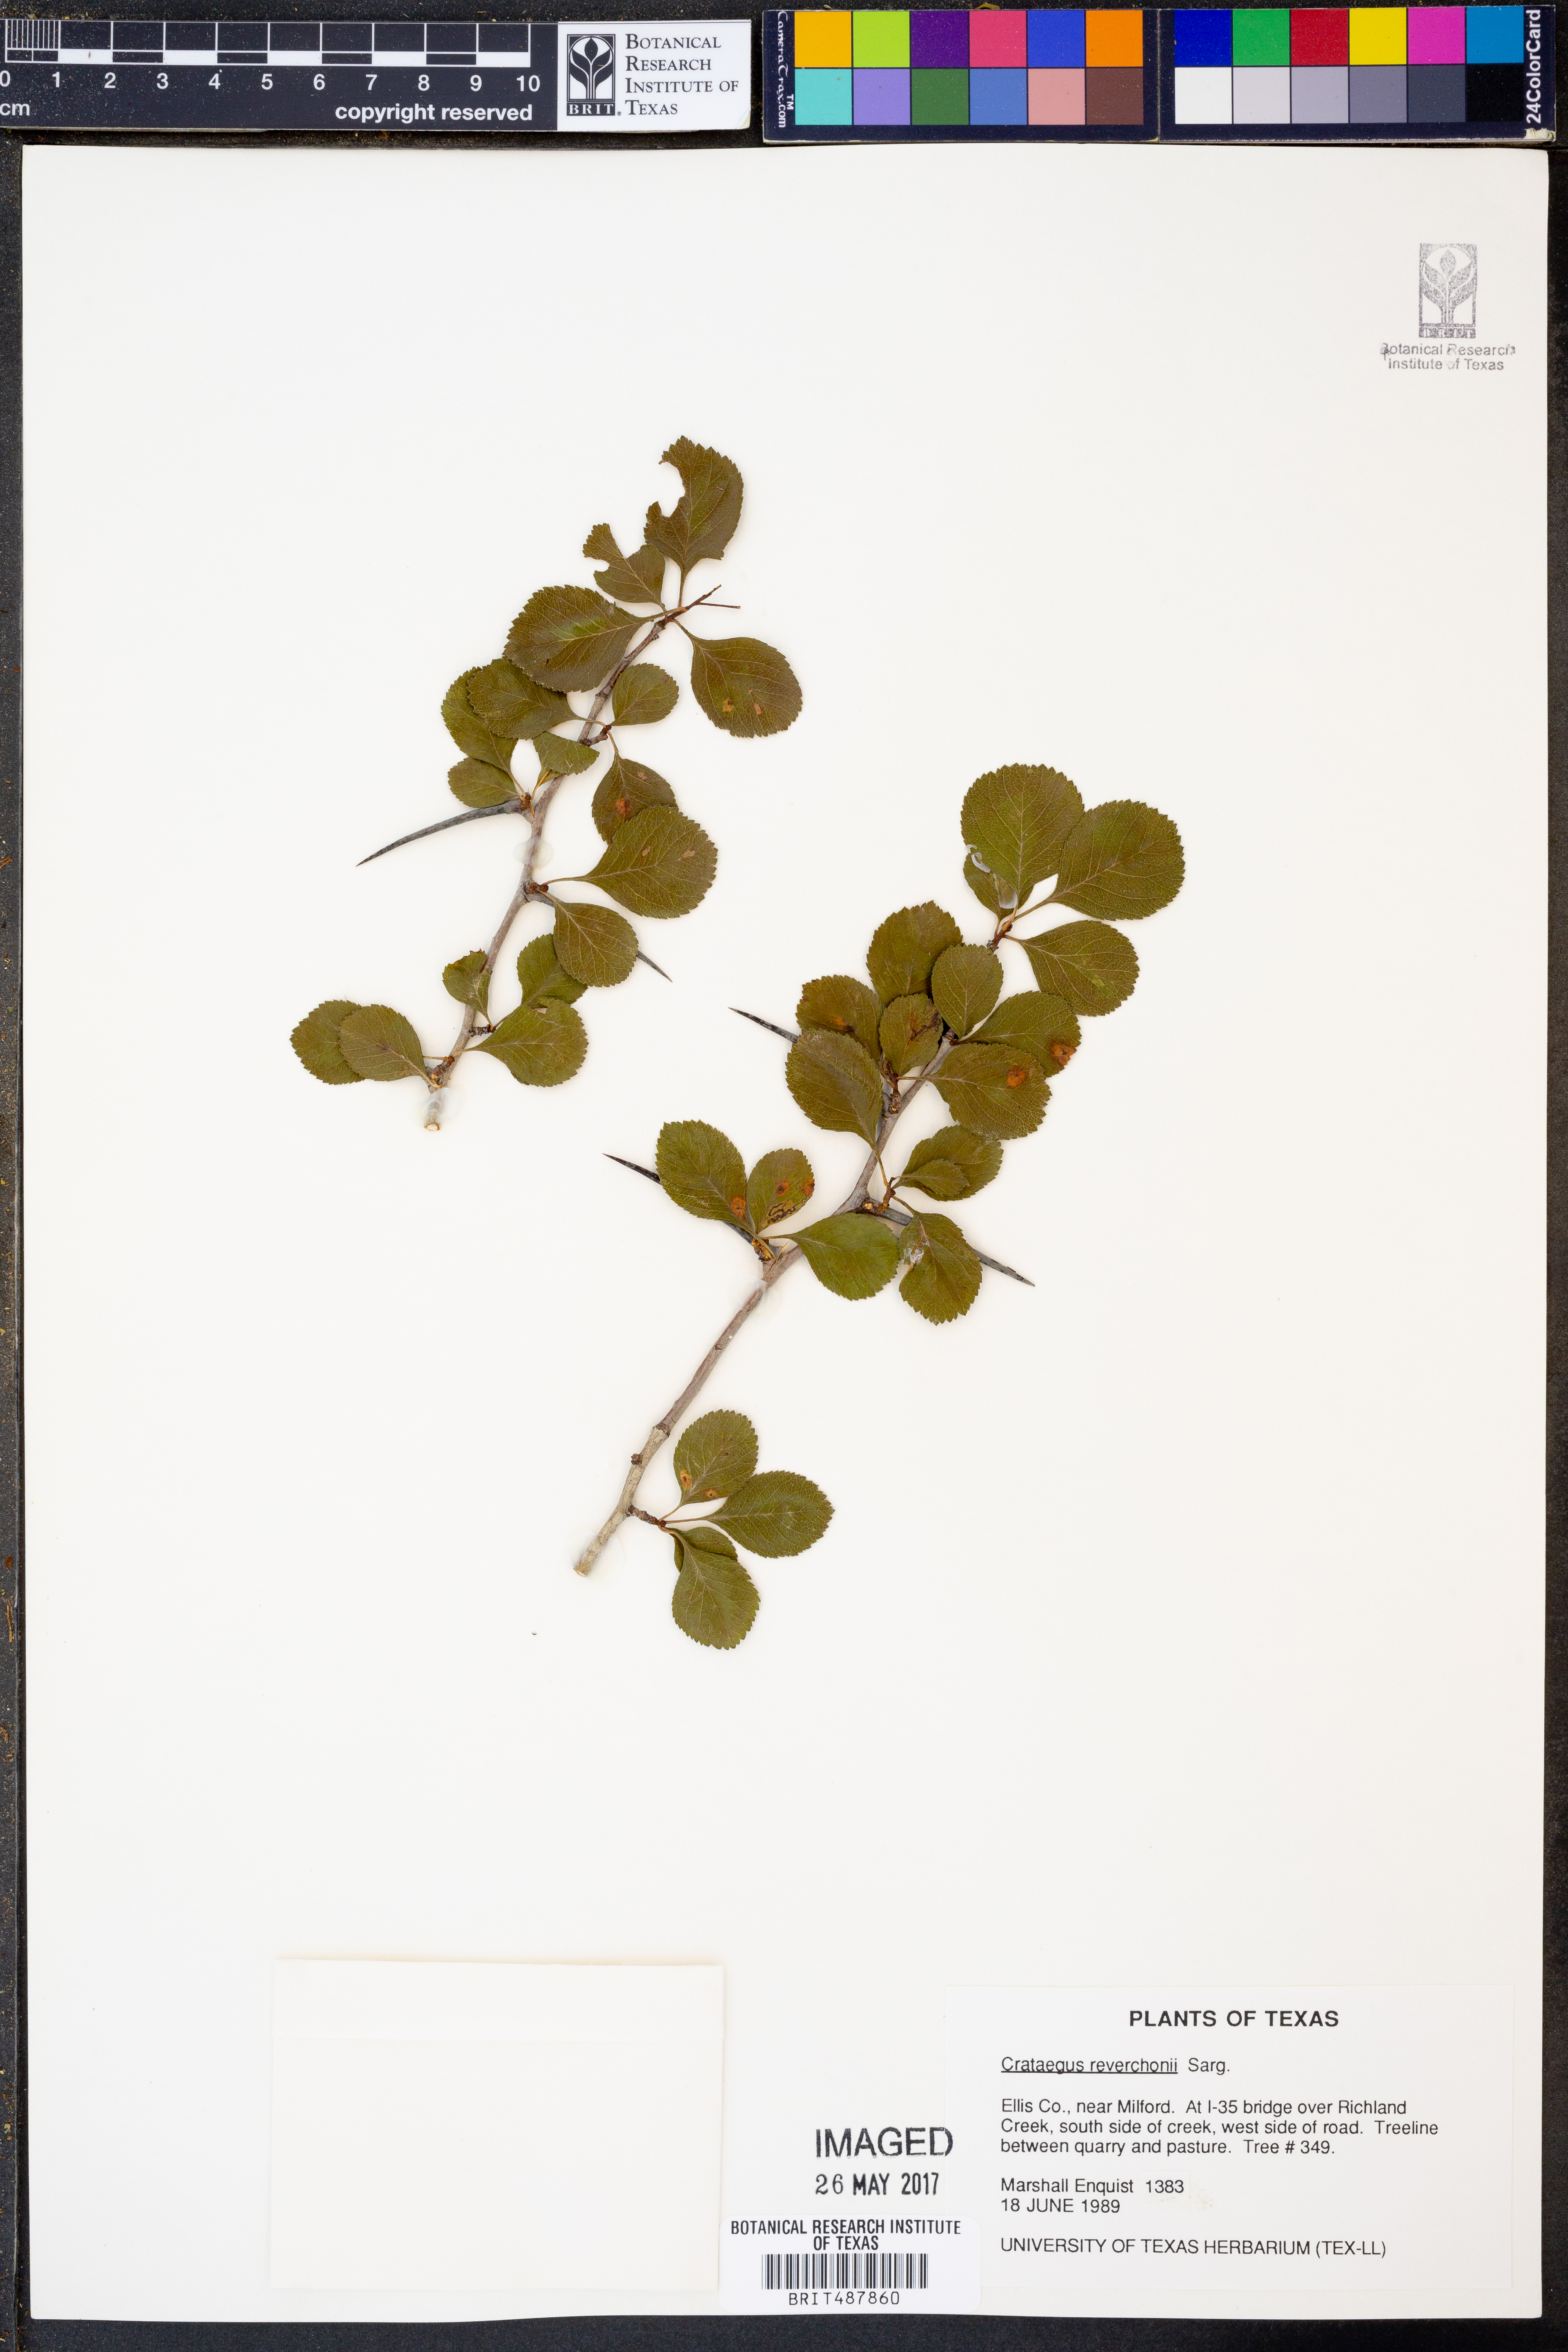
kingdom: Plantae
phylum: Tracheophyta
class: Magnoliopsida
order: Rosales
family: Rosaceae
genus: Crataegus
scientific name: Crataegus reverchonii
